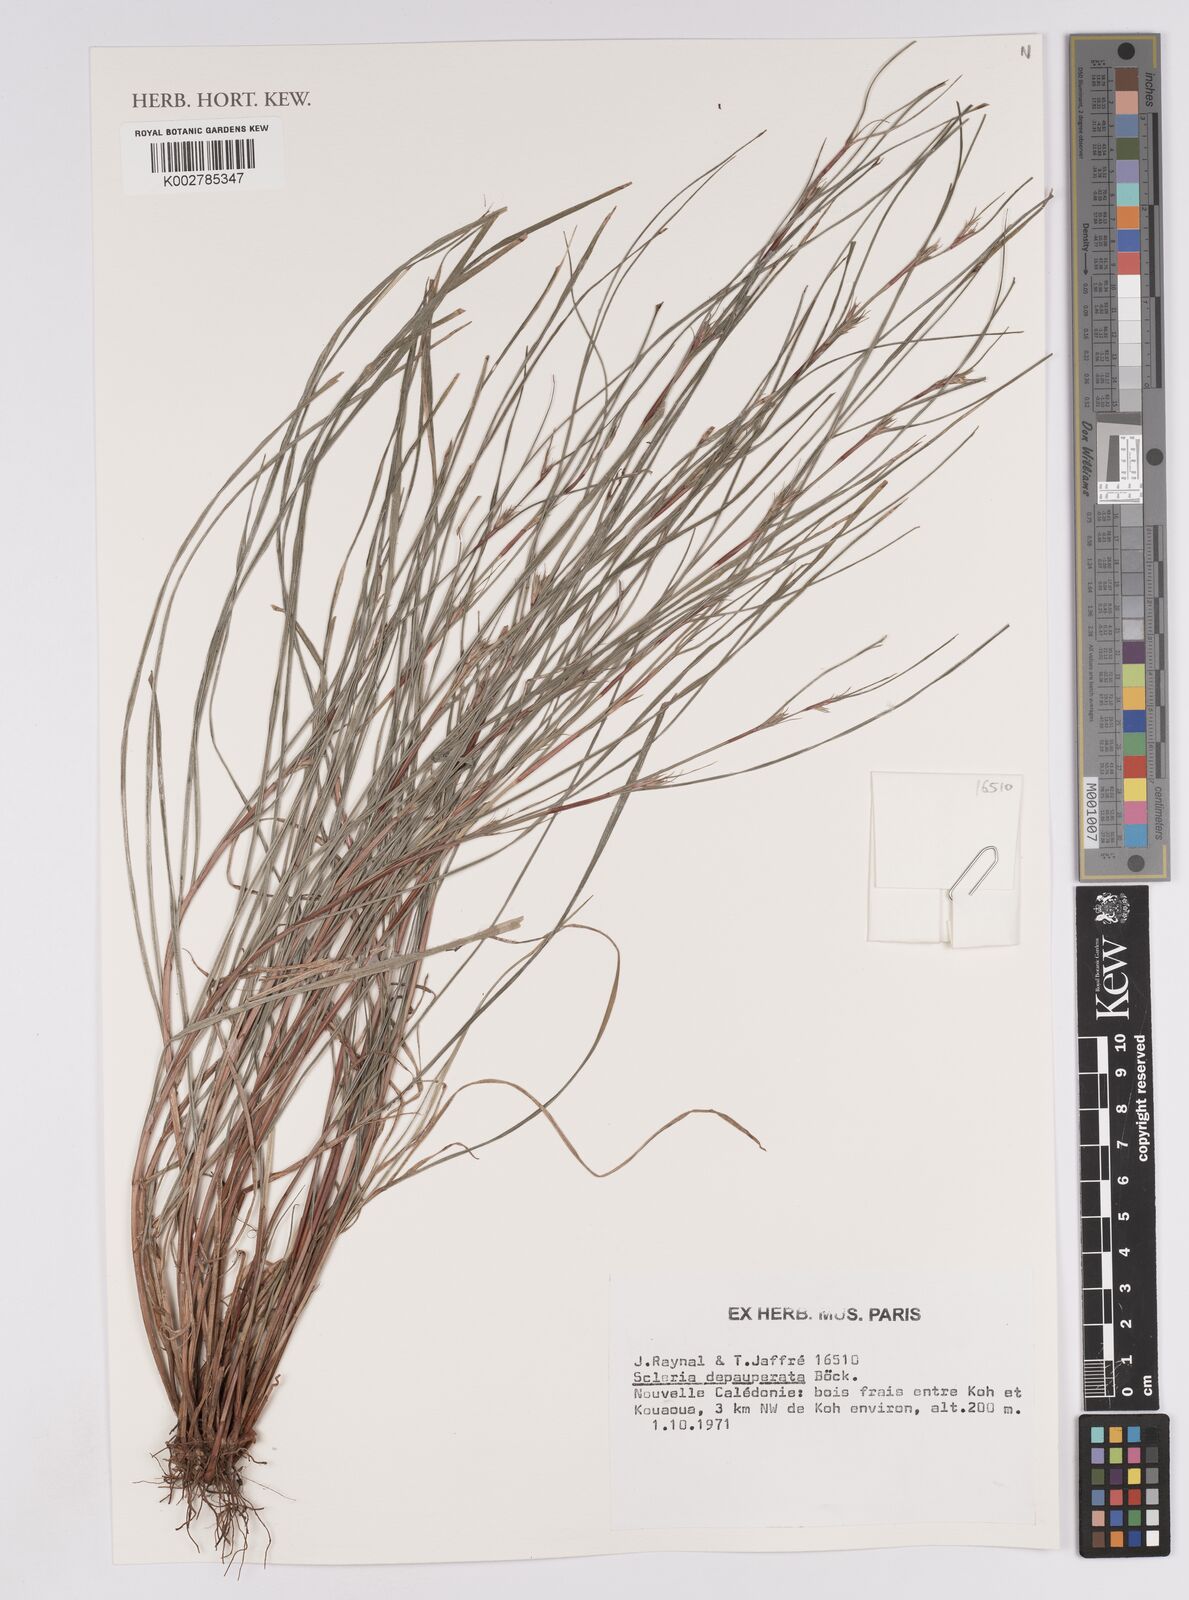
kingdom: Plantae
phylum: Tracheophyta
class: Liliopsida
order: Poales
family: Cyperaceae
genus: Scleria
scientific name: Scleria depauperata
